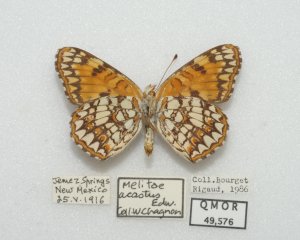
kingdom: Animalia
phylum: Arthropoda
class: Insecta
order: Lepidoptera
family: Nymphalidae
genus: Chlosyne
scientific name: Chlosyne acastus
